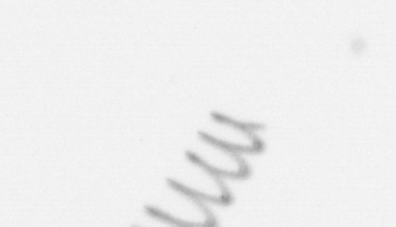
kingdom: Chromista
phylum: Ochrophyta
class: Bacillariophyceae
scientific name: Bacillariophyceae
